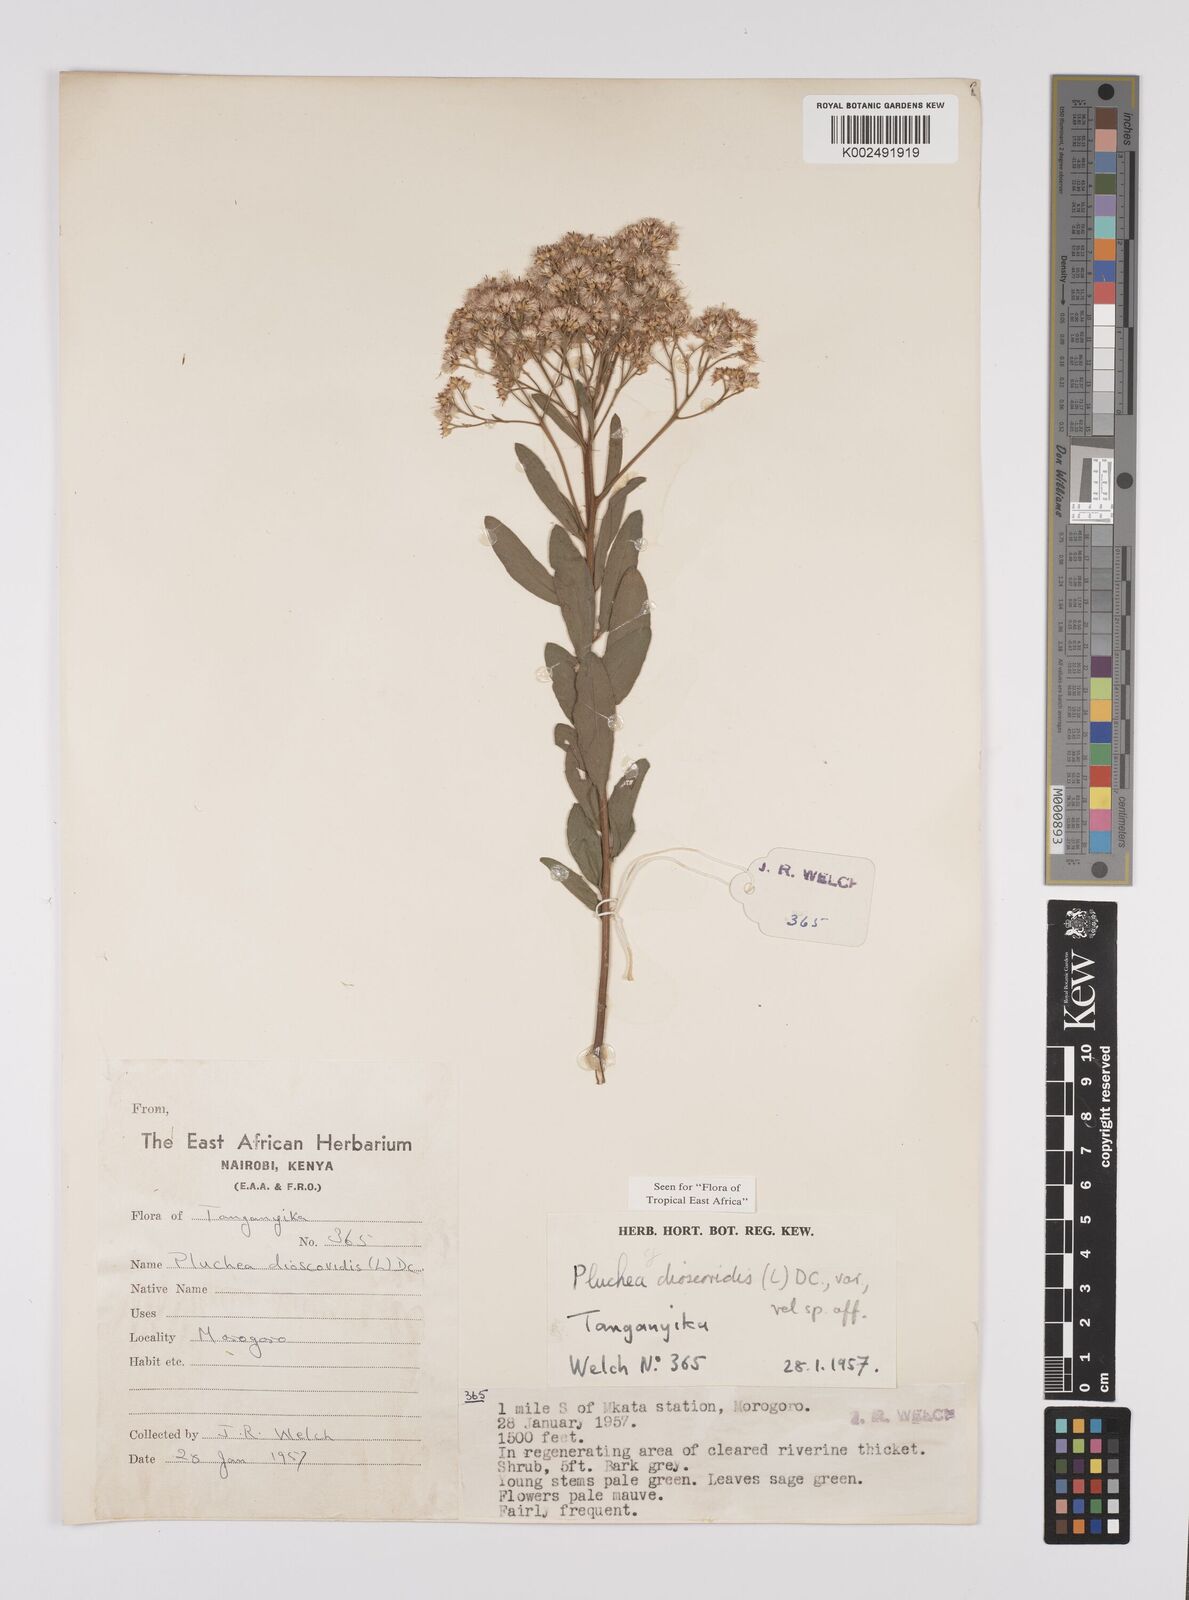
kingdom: Plantae
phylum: Tracheophyta
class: Magnoliopsida
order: Asterales
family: Asteraceae
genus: Pluchea
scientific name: Pluchea dioscoridis
